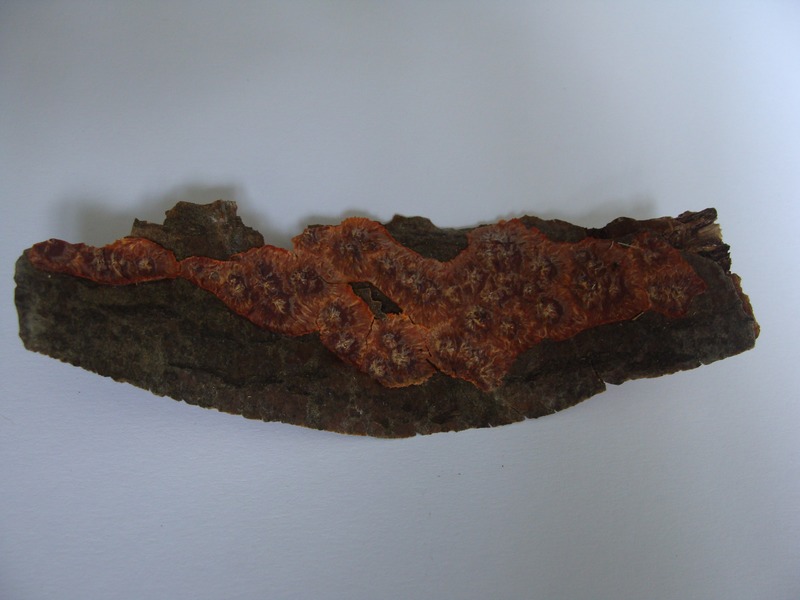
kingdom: Fungi
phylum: Basidiomycota
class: Agaricomycetes
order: Polyporales
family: Meruliaceae
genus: Phlebia
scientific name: Phlebia radiata
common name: Wrinkled crust
